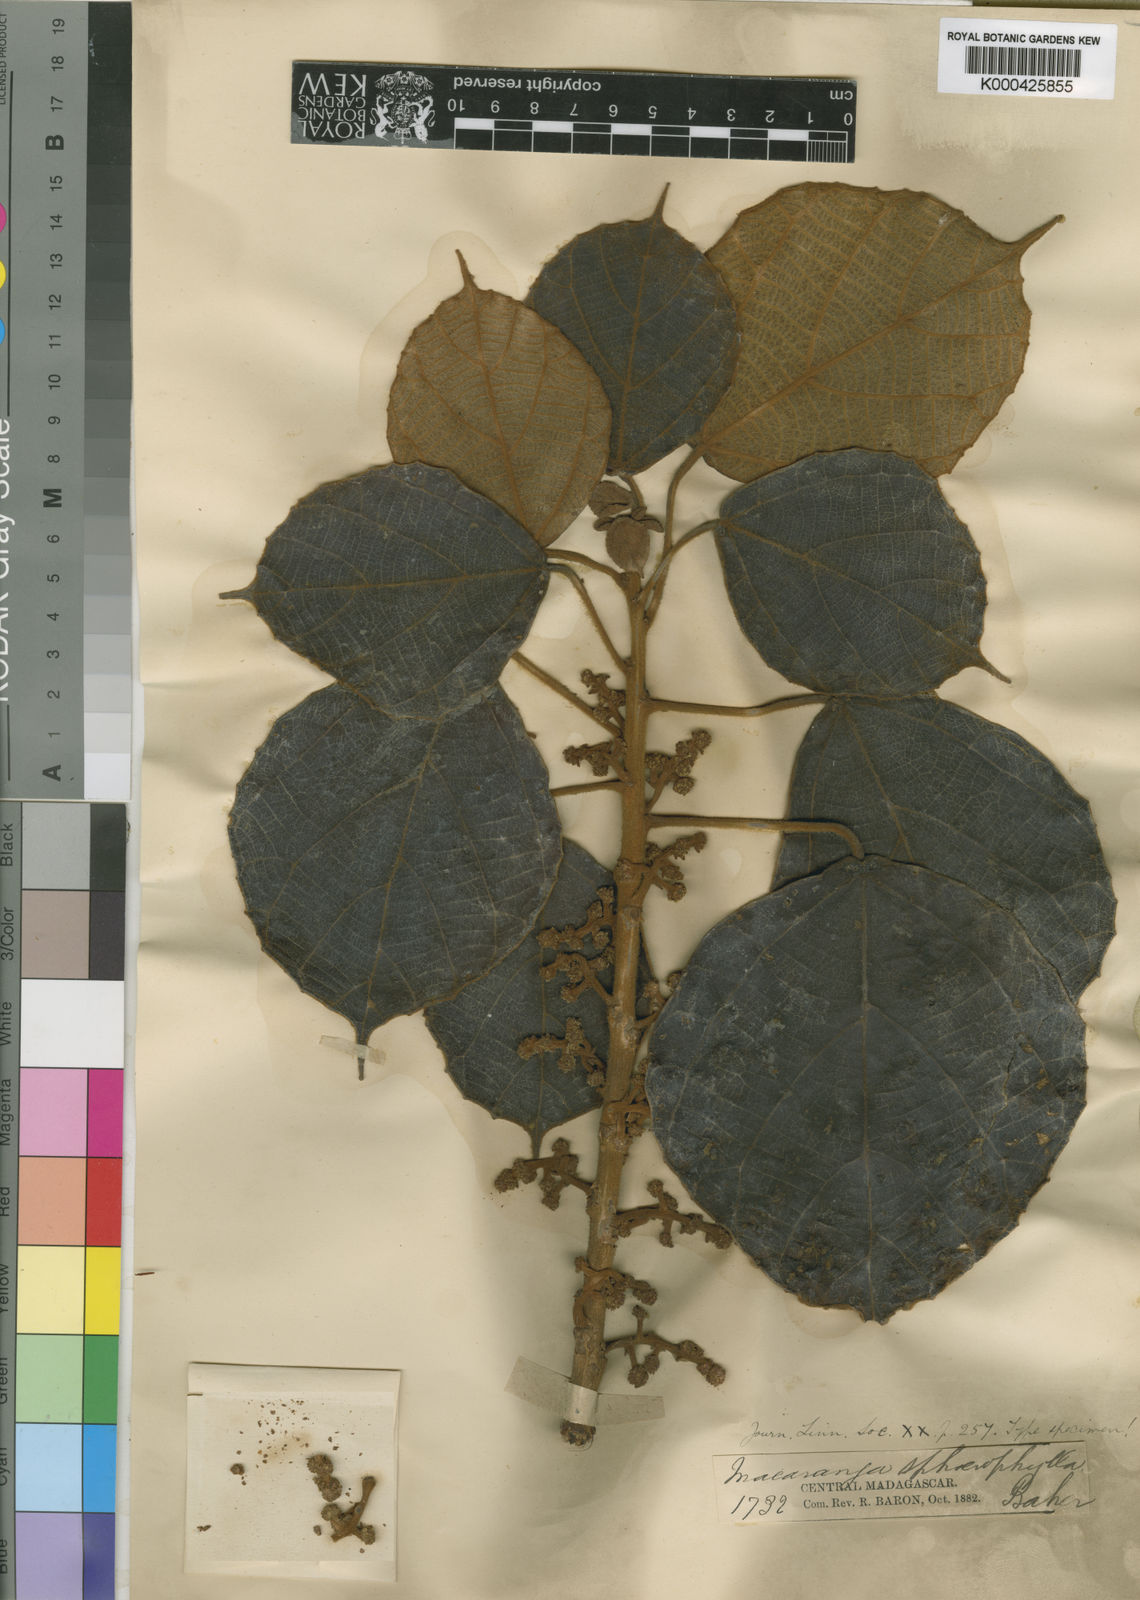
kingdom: Plantae
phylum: Tracheophyta
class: Magnoliopsida
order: Malpighiales
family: Euphorbiaceae
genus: Macaranga
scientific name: Macaranga sphaerophylla
